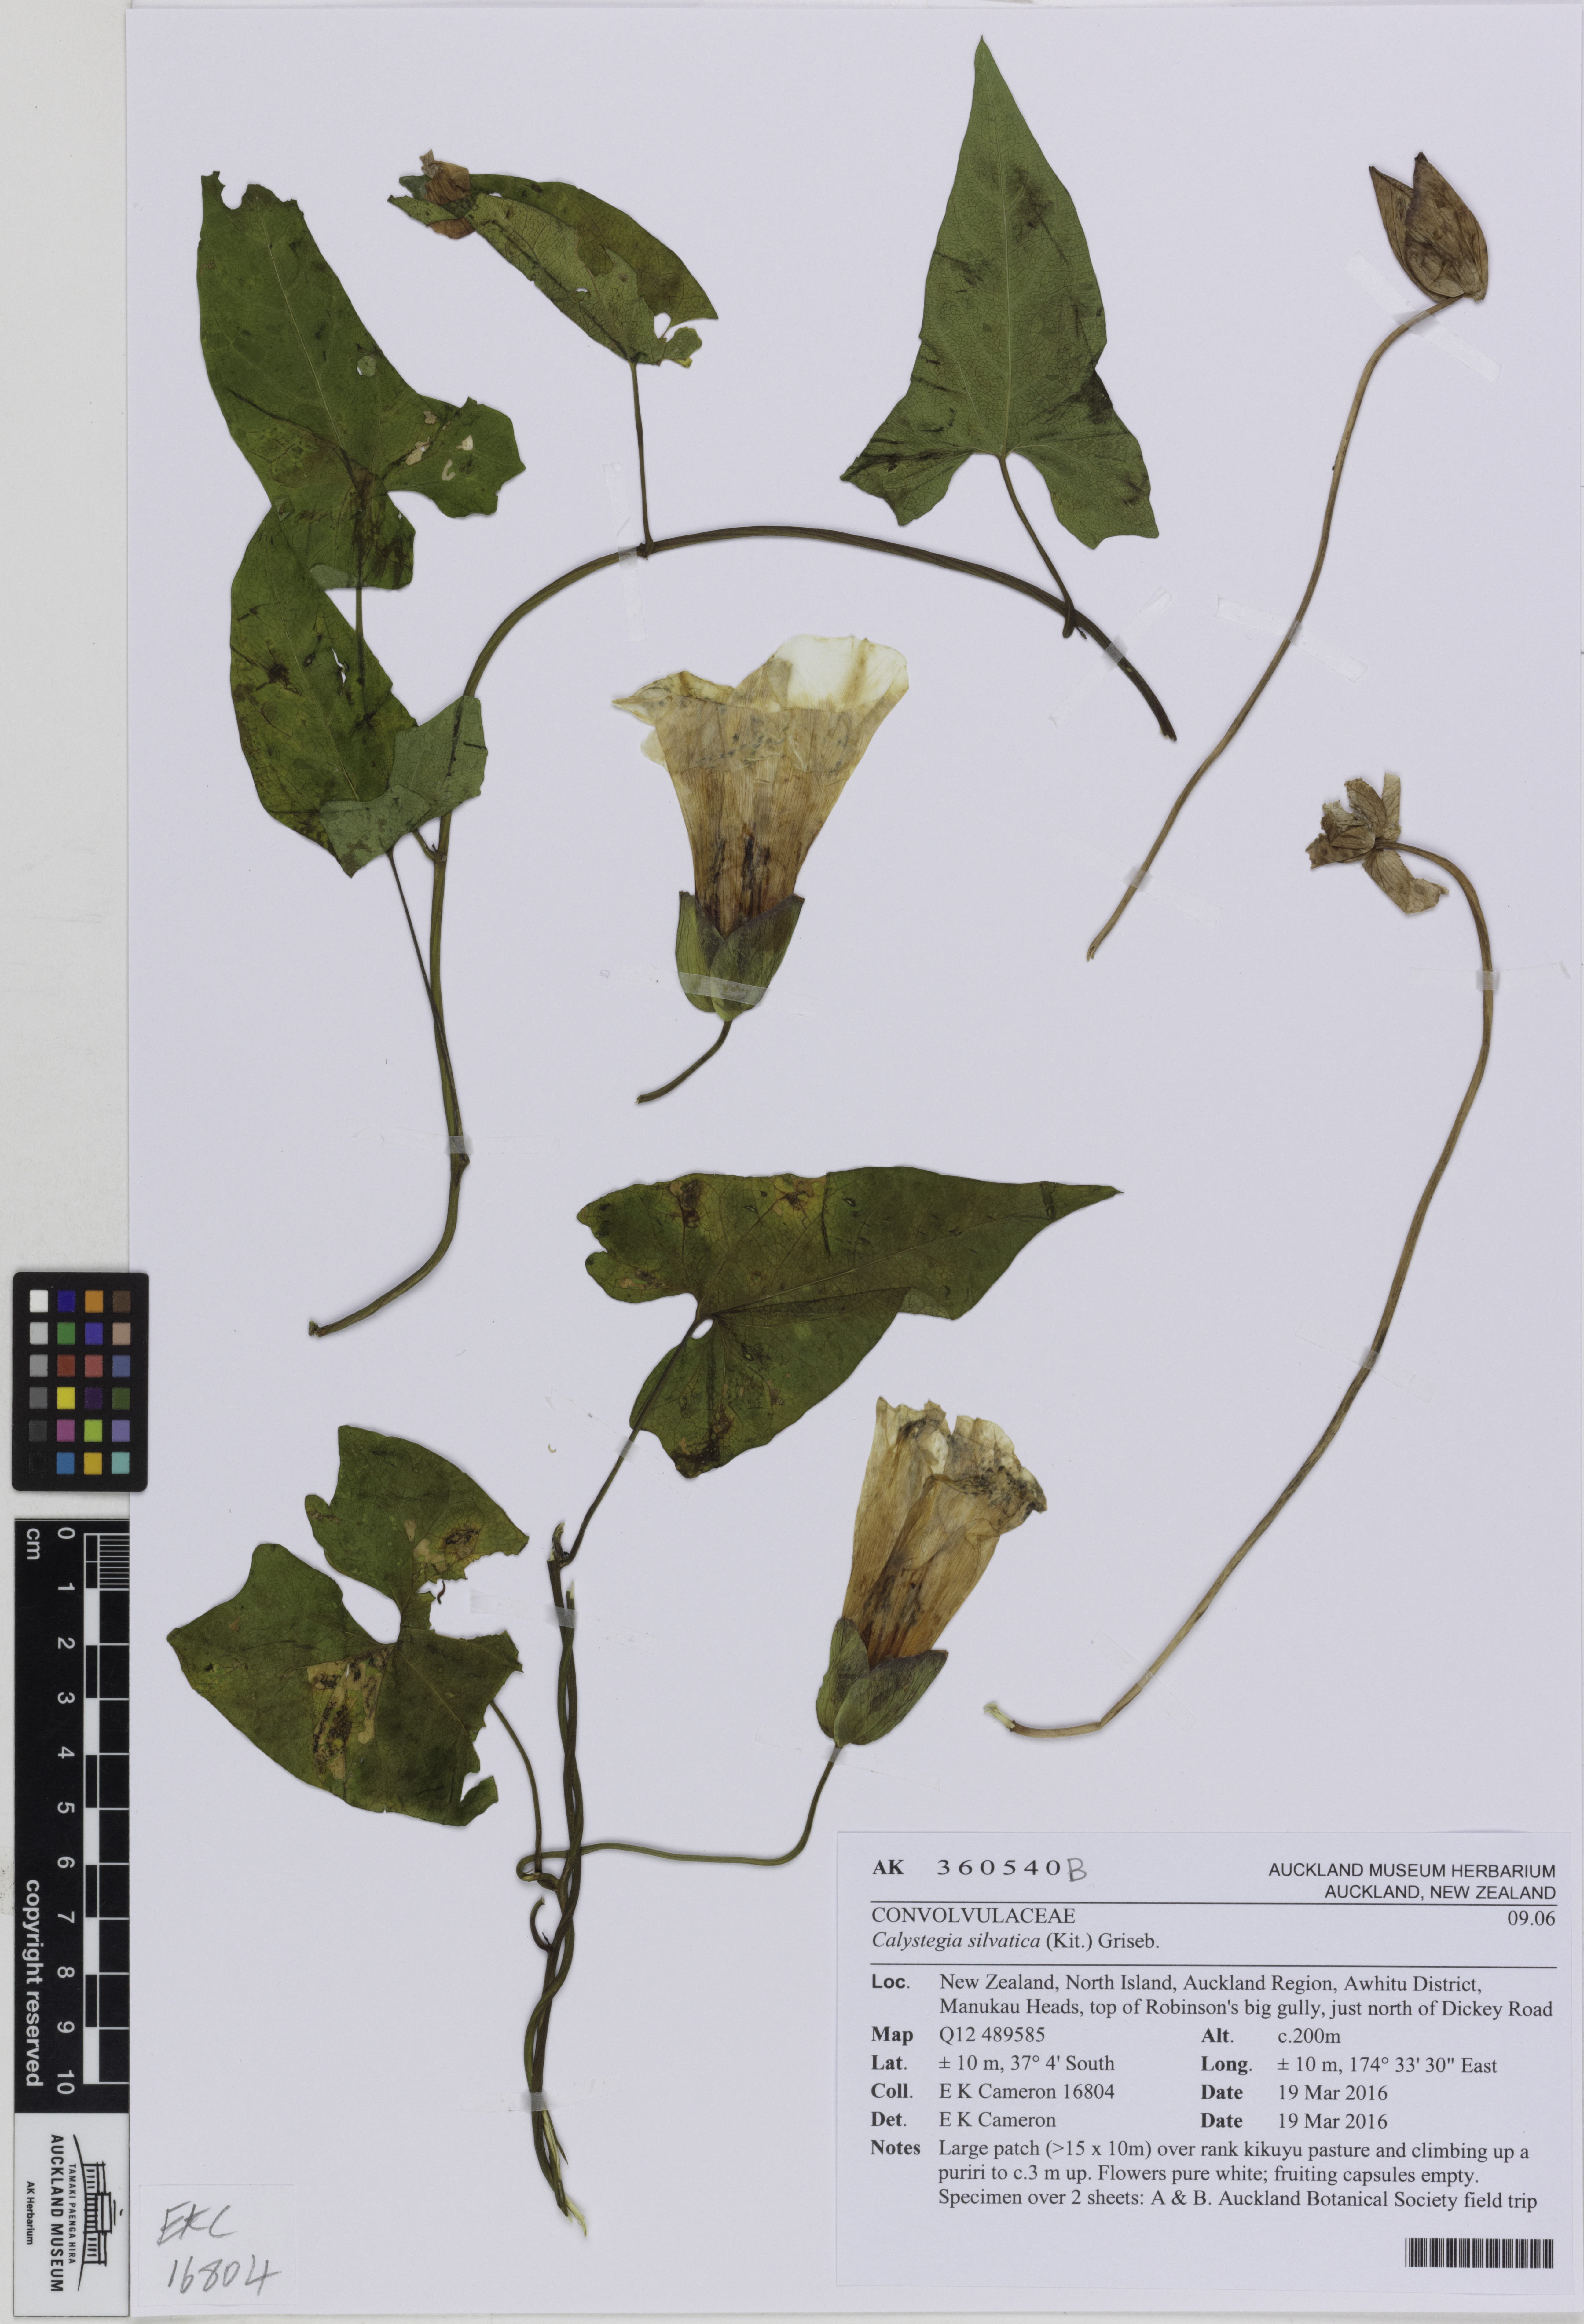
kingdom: Plantae
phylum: Tracheophyta
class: Magnoliopsida
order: Solanales
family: Convolvulaceae
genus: Calystegia
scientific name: Calystegia silvatica
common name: Large bindweed
